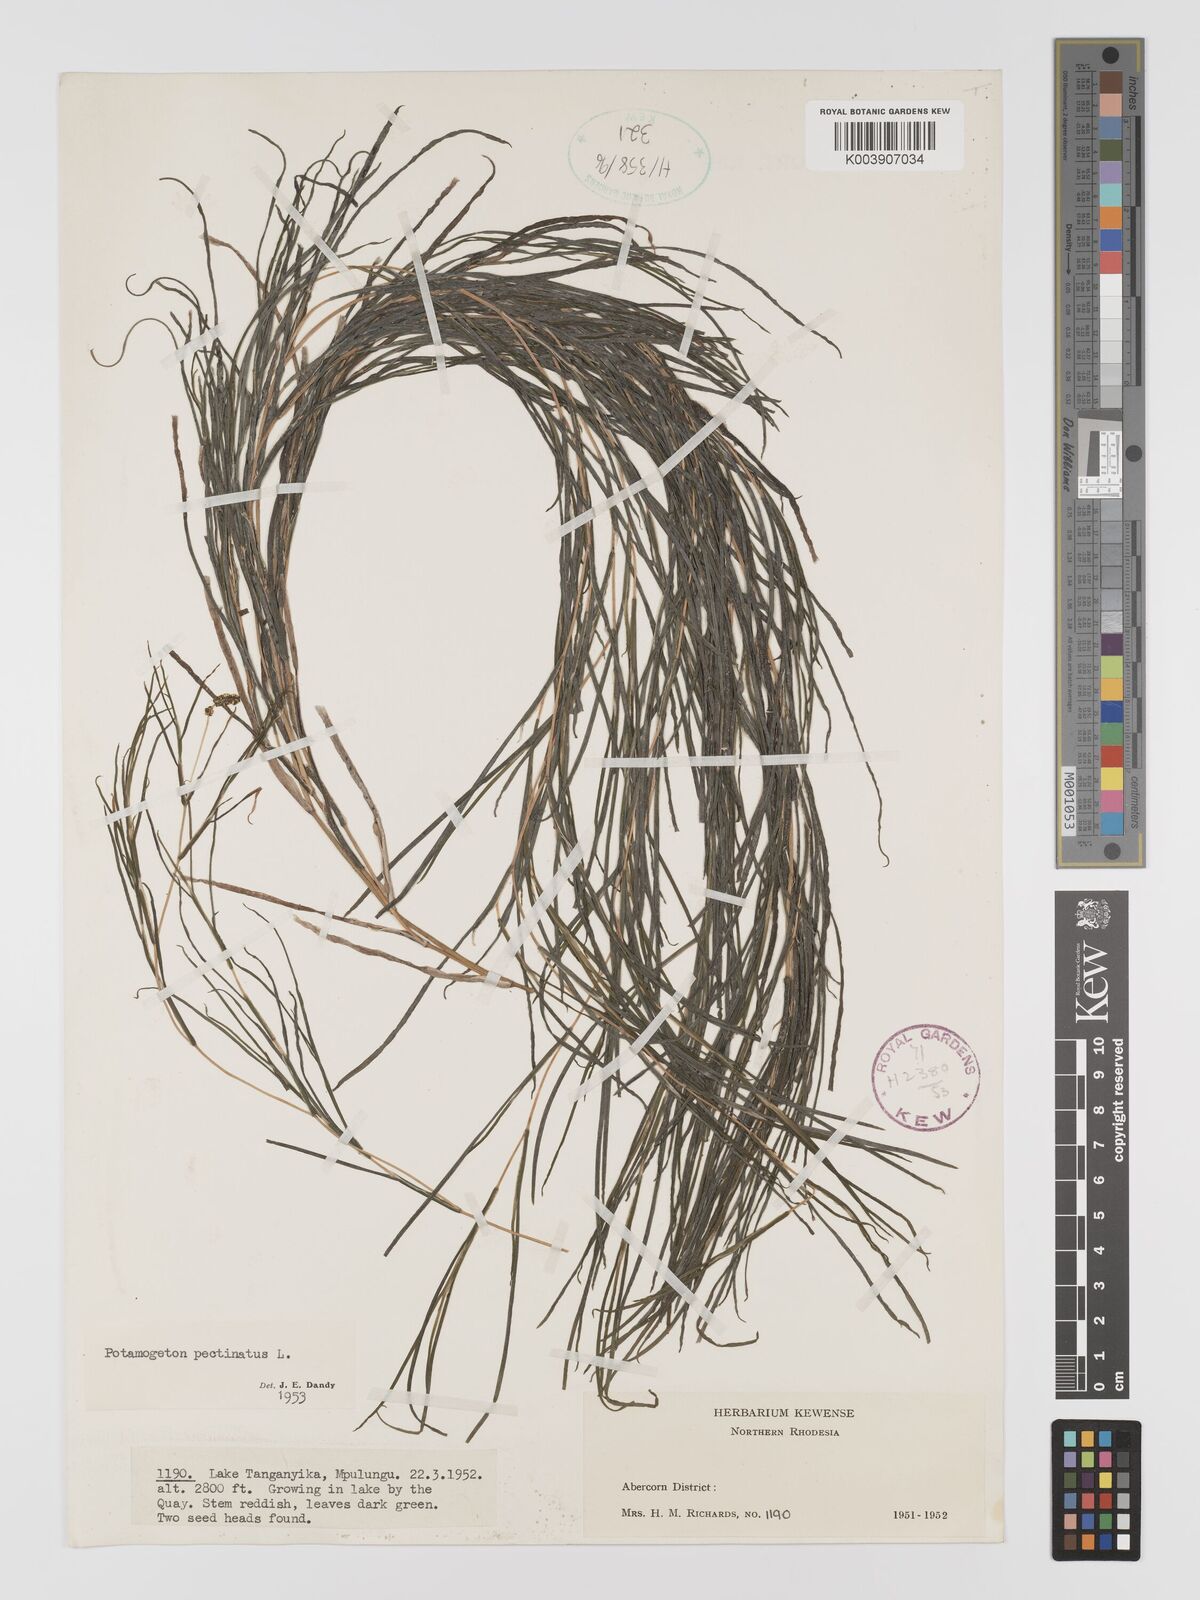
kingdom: Plantae
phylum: Tracheophyta
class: Liliopsida
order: Alismatales
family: Potamogetonaceae
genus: Stuckenia
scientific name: Stuckenia pectinata
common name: Sago pondweed
